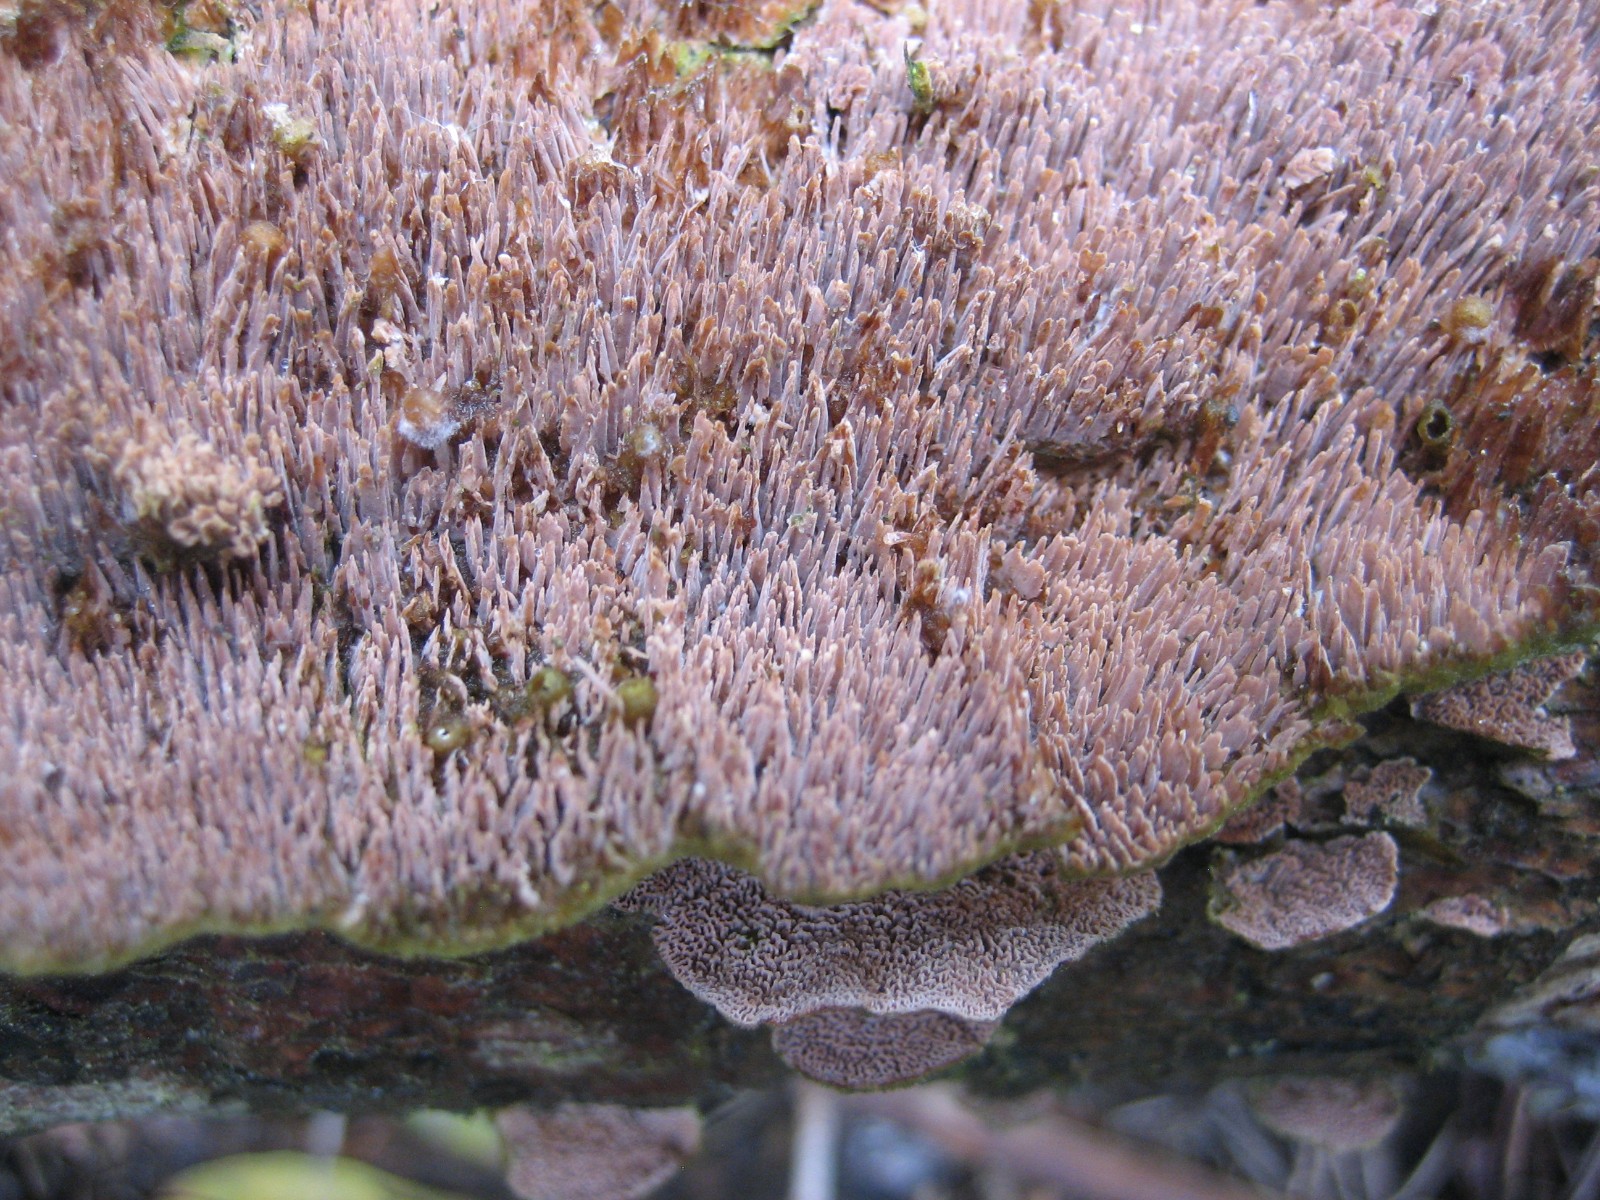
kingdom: Fungi
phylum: Basidiomycota
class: Agaricomycetes
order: Hymenochaetales
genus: Trichaptum
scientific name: Trichaptum fuscoviolaceum
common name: tandet violporesvamp
